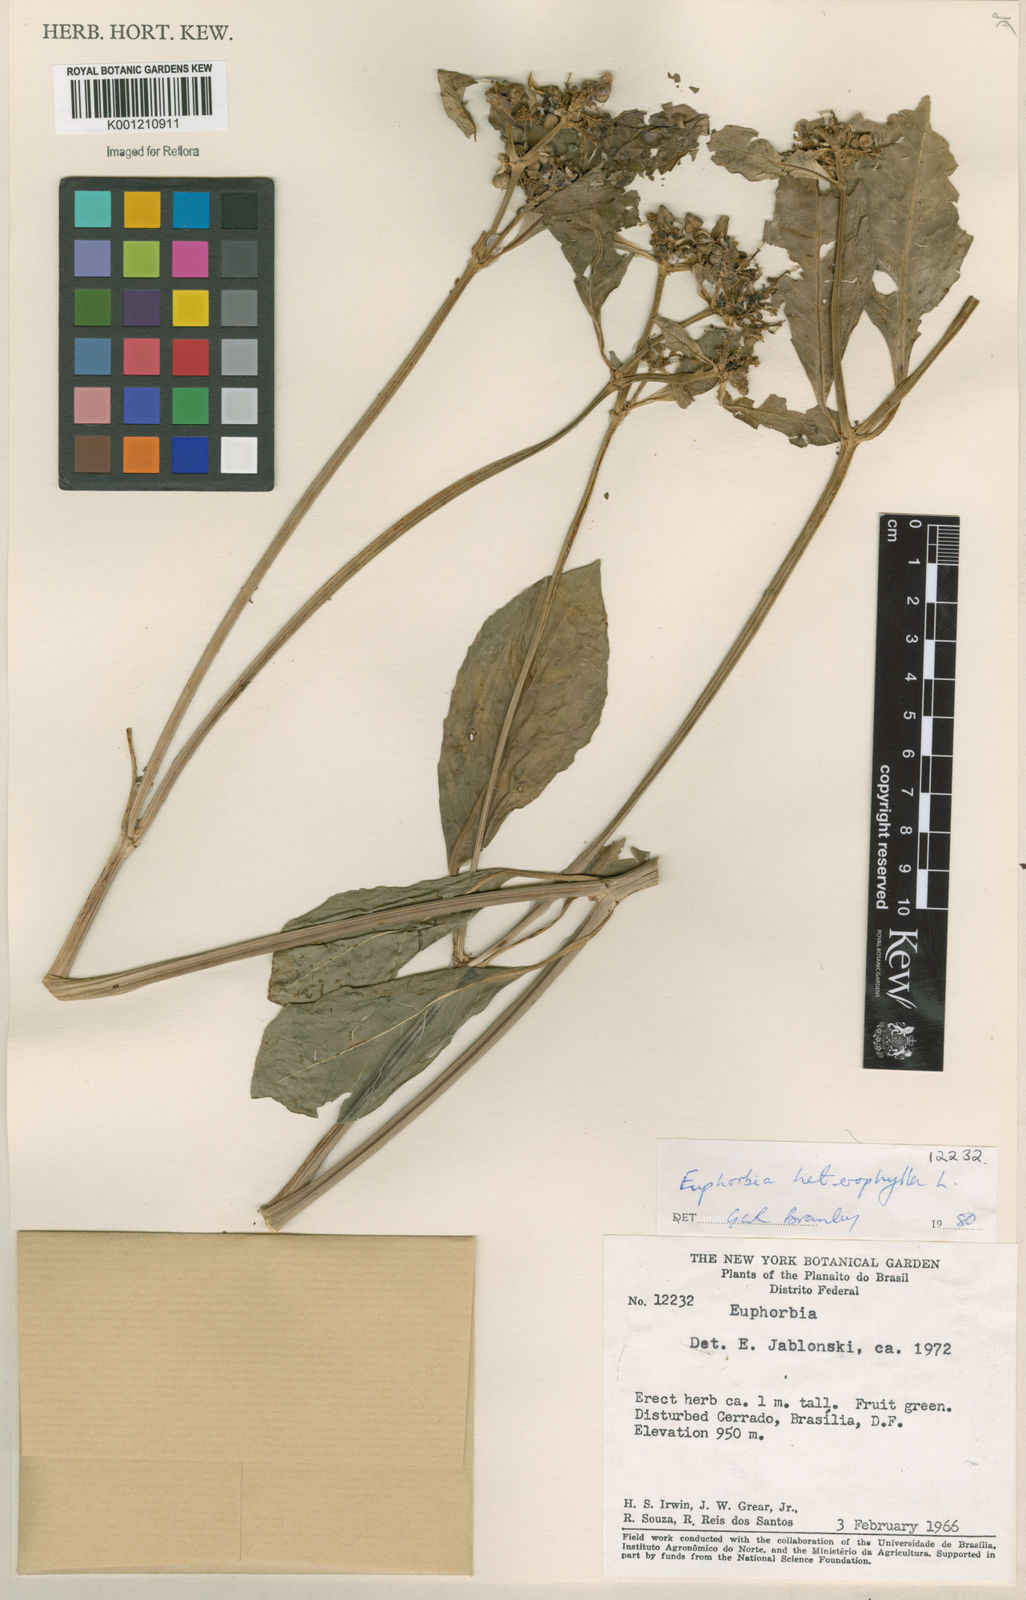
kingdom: Plantae
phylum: Tracheophyta
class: Magnoliopsida
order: Malpighiales
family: Euphorbiaceae
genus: Euphorbia
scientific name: Euphorbia heterophylla
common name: Mexican fireplant
